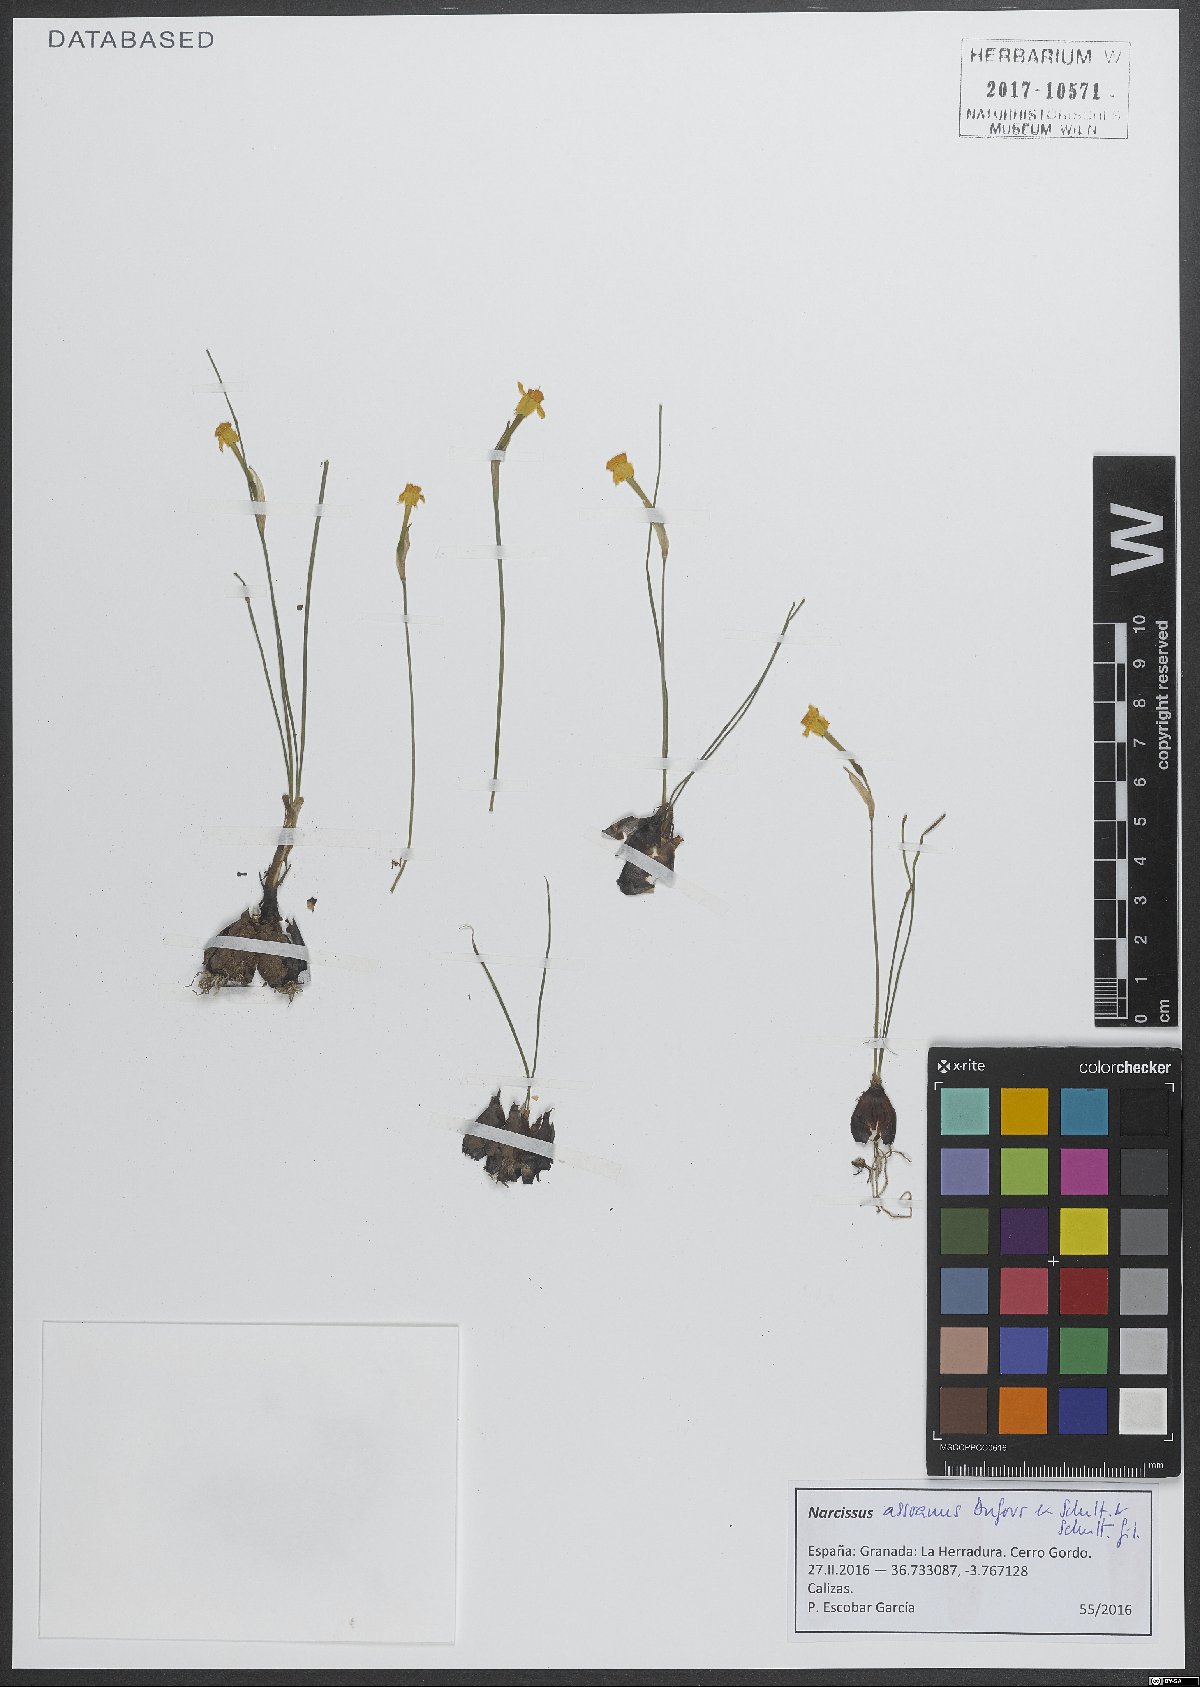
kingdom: Plantae
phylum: Tracheophyta
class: Liliopsida
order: Asparagales
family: Amaryllidaceae
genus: Narcissus
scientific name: Narcissus assoanus
